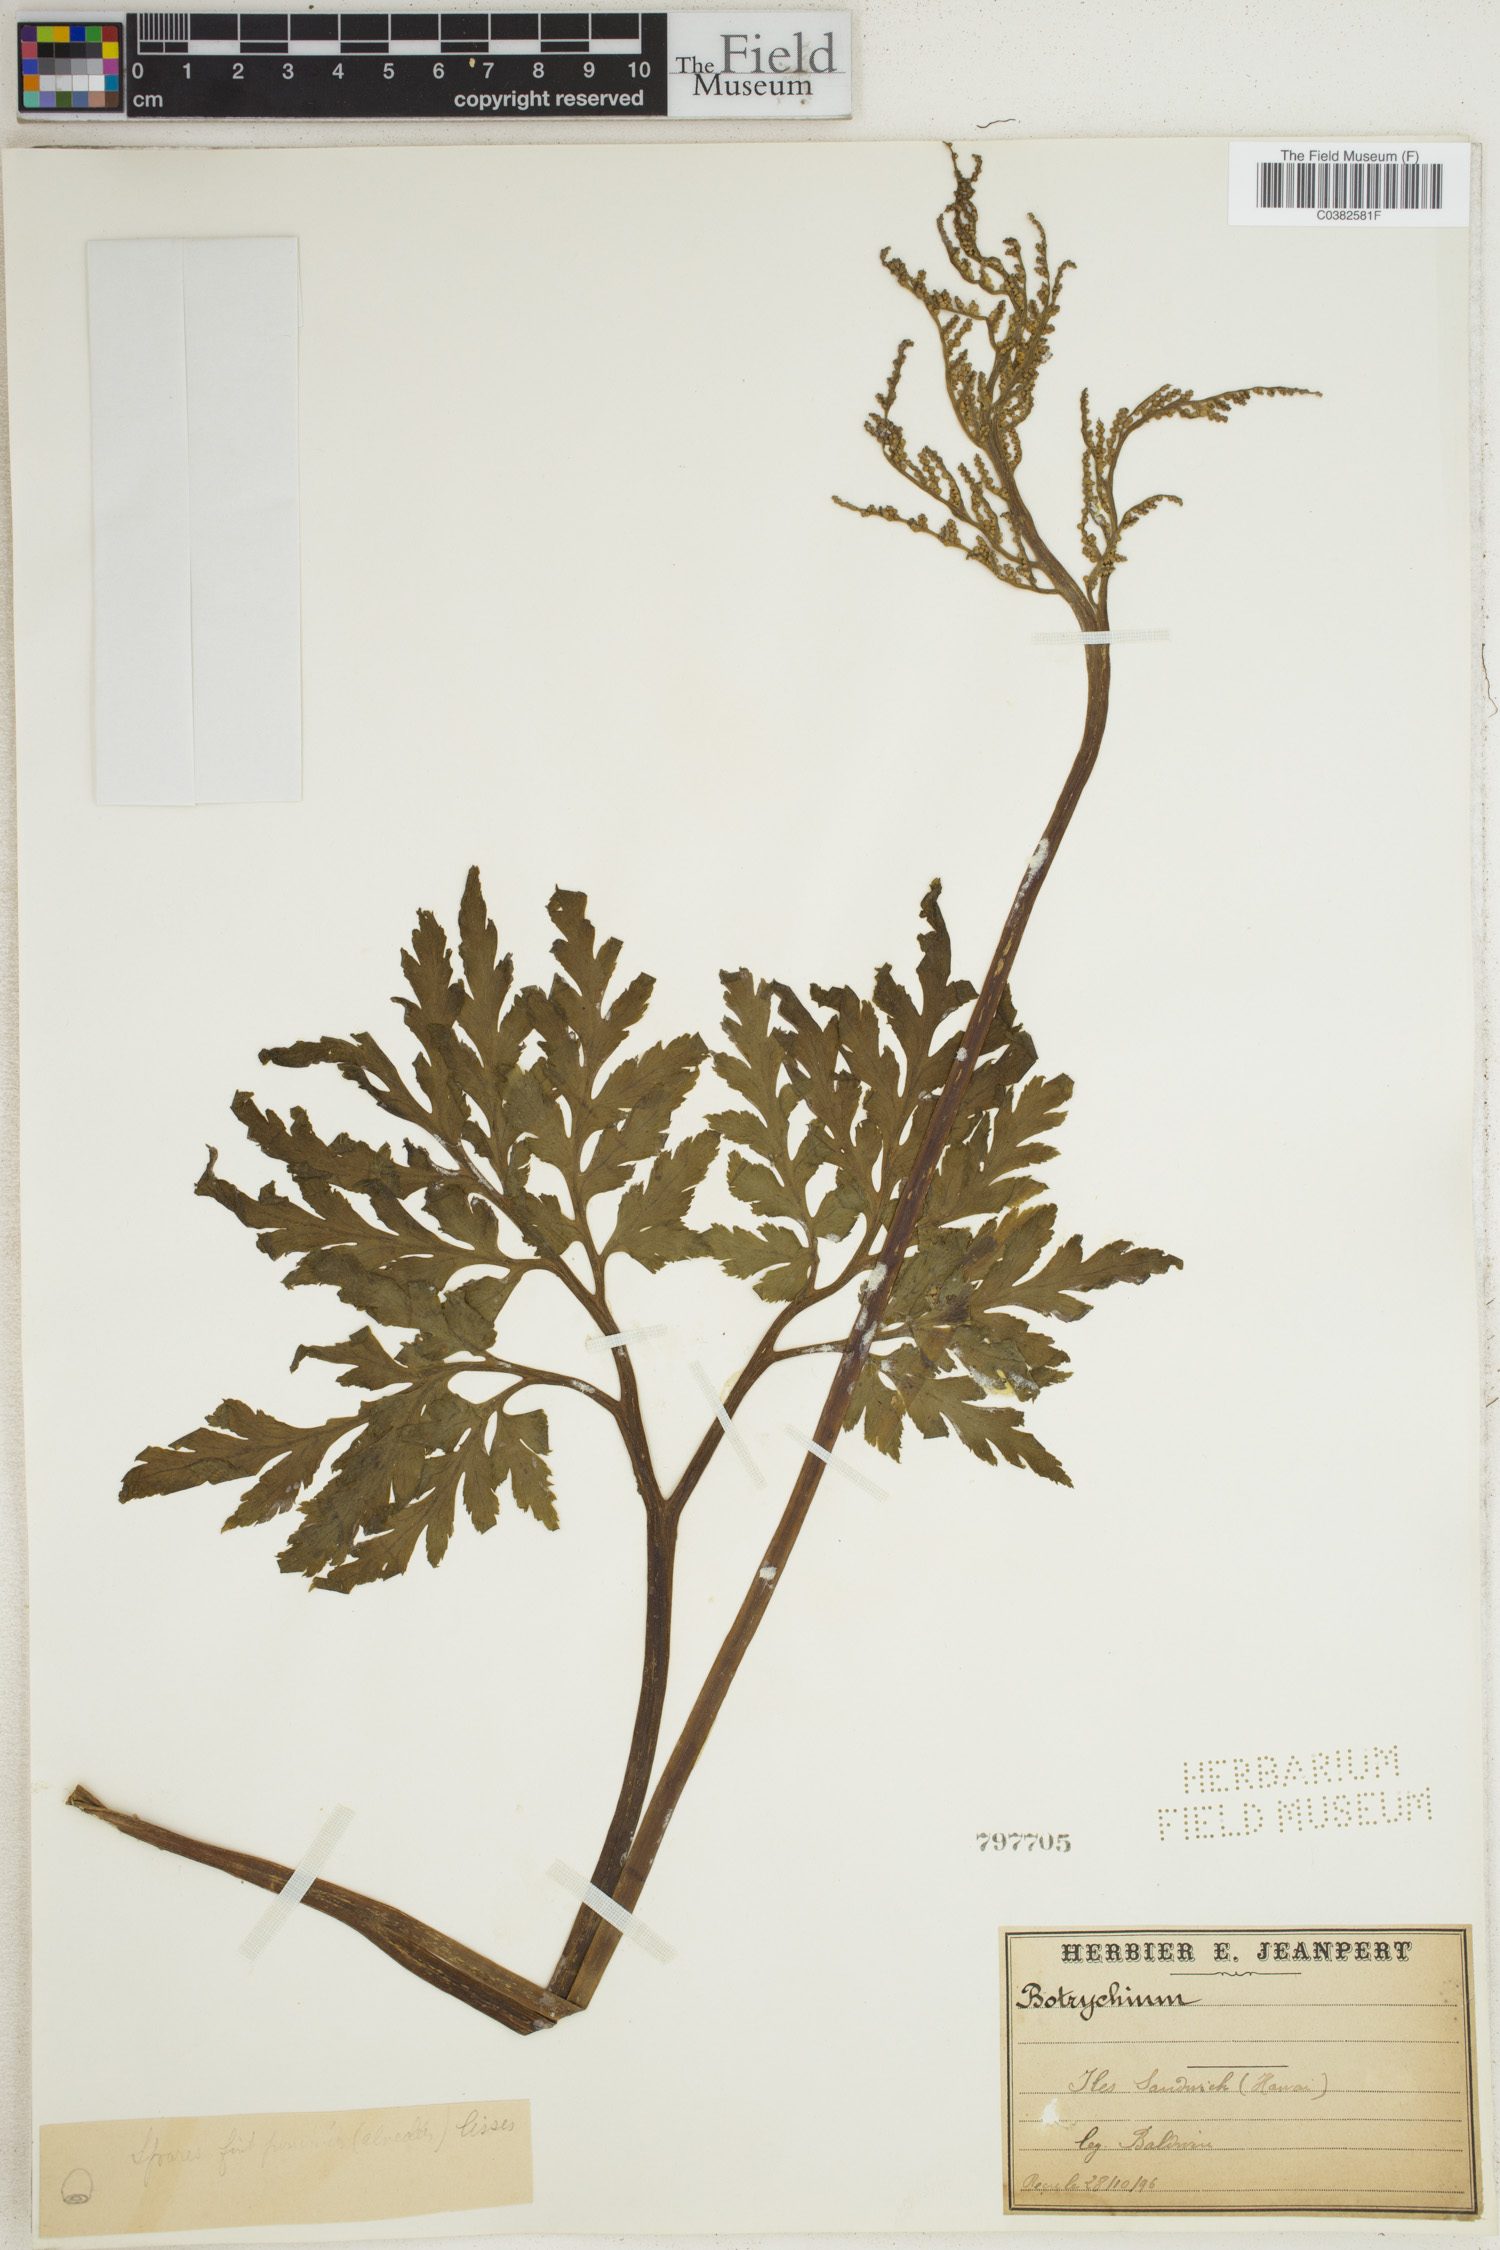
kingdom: Plantae
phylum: Tracheophyta
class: Polypodiopsida
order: Ophioglossales
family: Ophioglossaceae
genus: Botrychium
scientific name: Botrychium
